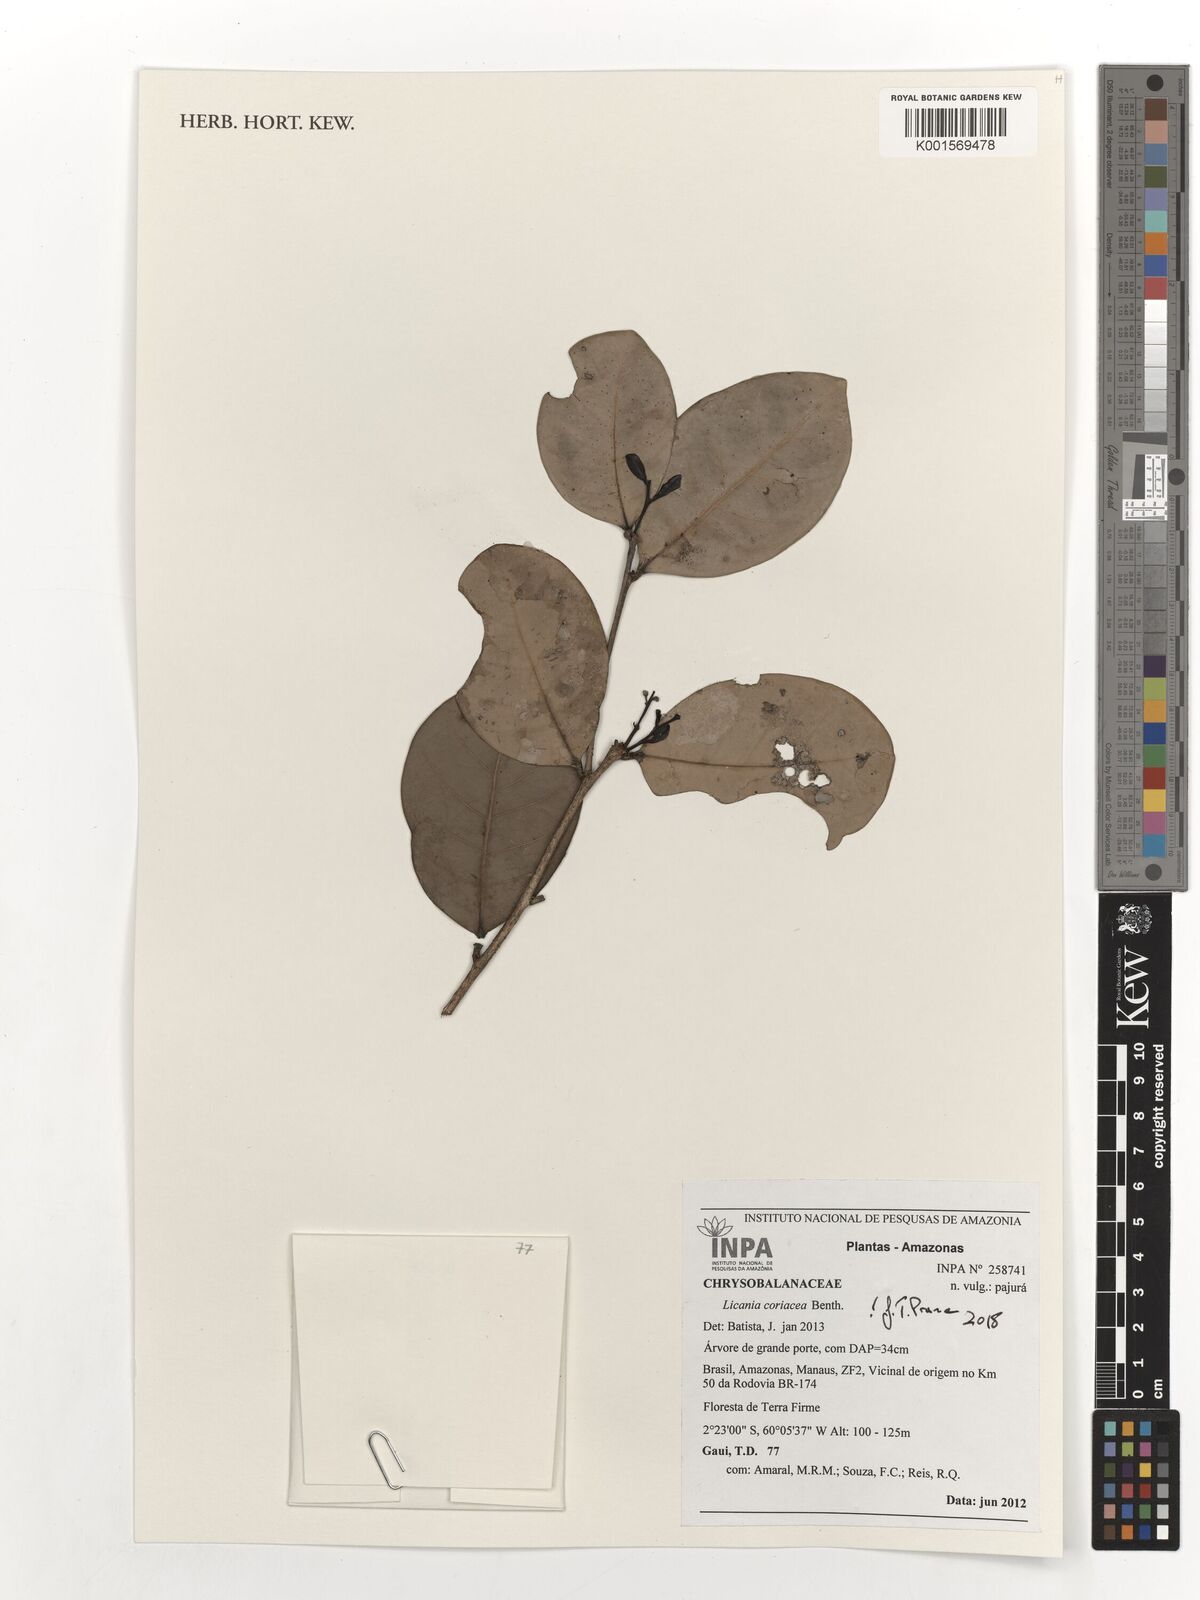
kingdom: Plantae
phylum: Tracheophyta
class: Magnoliopsida
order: Malpighiales
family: Chrysobalanaceae
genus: Licania
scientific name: Licania coriacea
